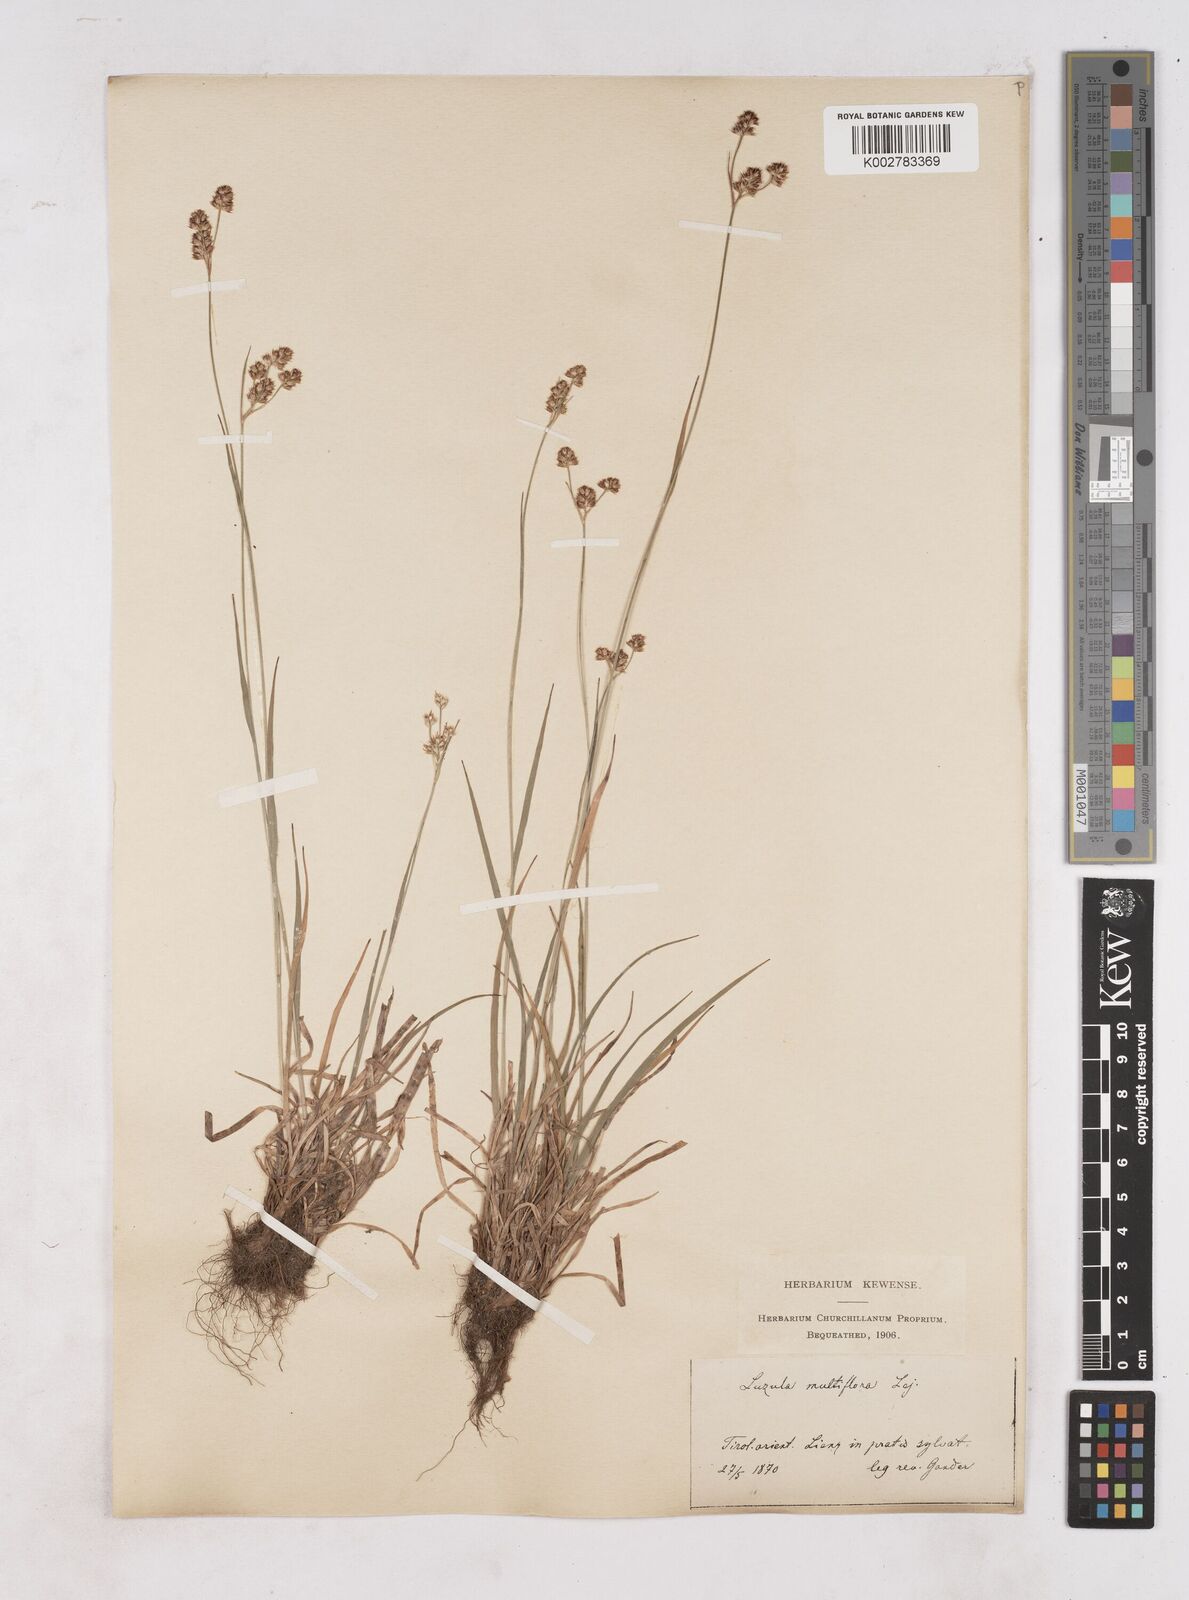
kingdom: Plantae
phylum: Tracheophyta
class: Liliopsida
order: Poales
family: Juncaceae
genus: Luzula
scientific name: Luzula multiflora
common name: Heath wood-rush
